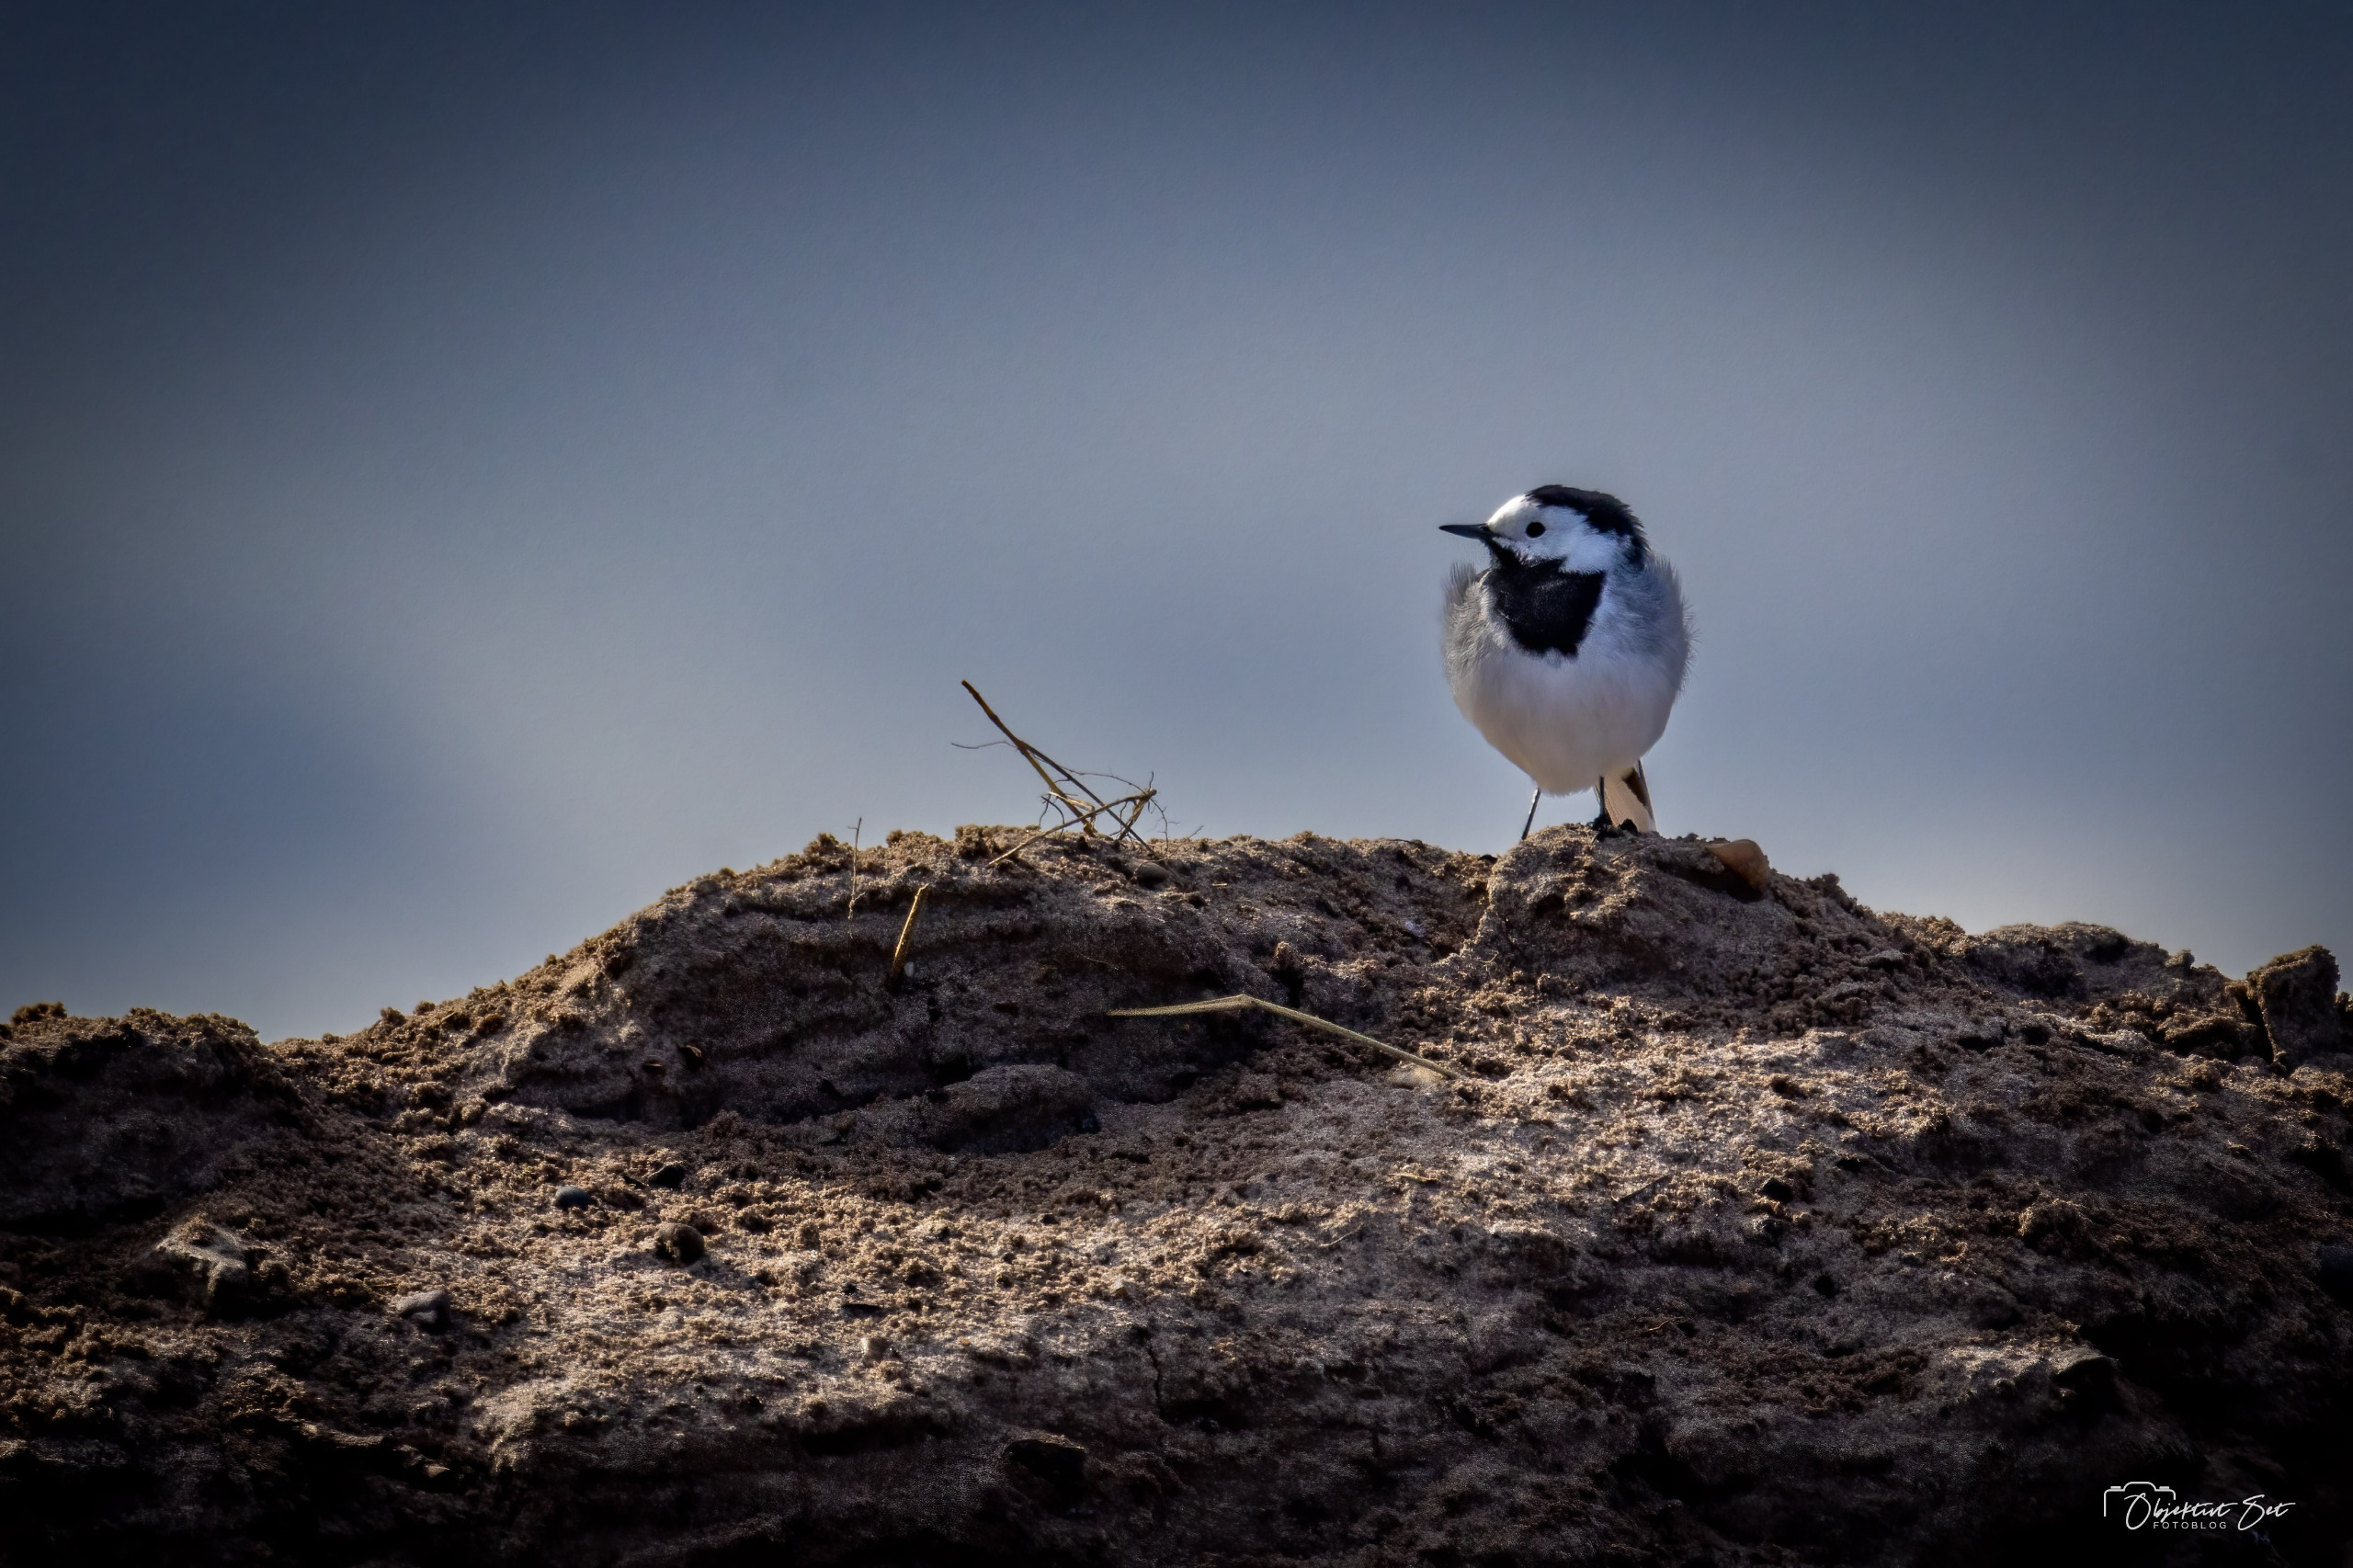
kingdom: Animalia
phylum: Chordata
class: Aves
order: Passeriformes
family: Motacillidae
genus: Motacilla
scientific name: Motacilla alba
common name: Hvid vipstjert
